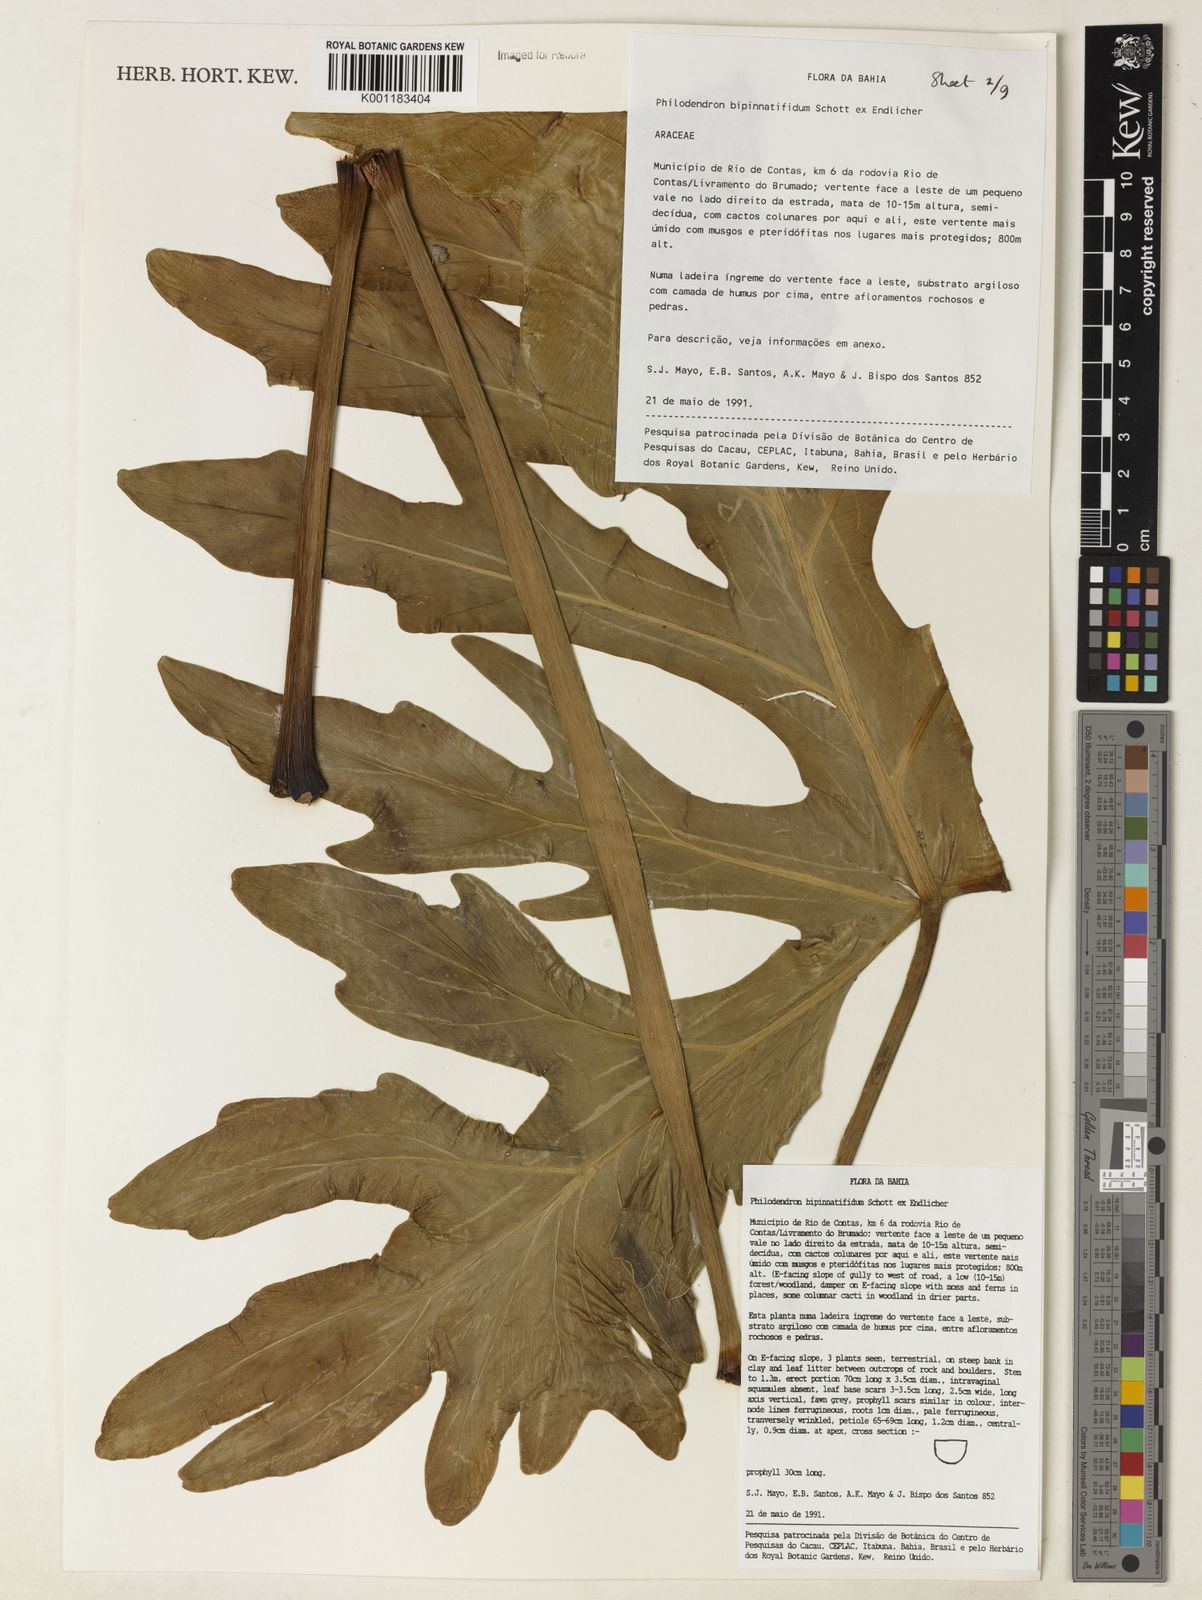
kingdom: Plantae
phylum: Tracheophyta
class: Liliopsida
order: Alismatales
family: Araceae
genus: Philodendron
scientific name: Philodendron
